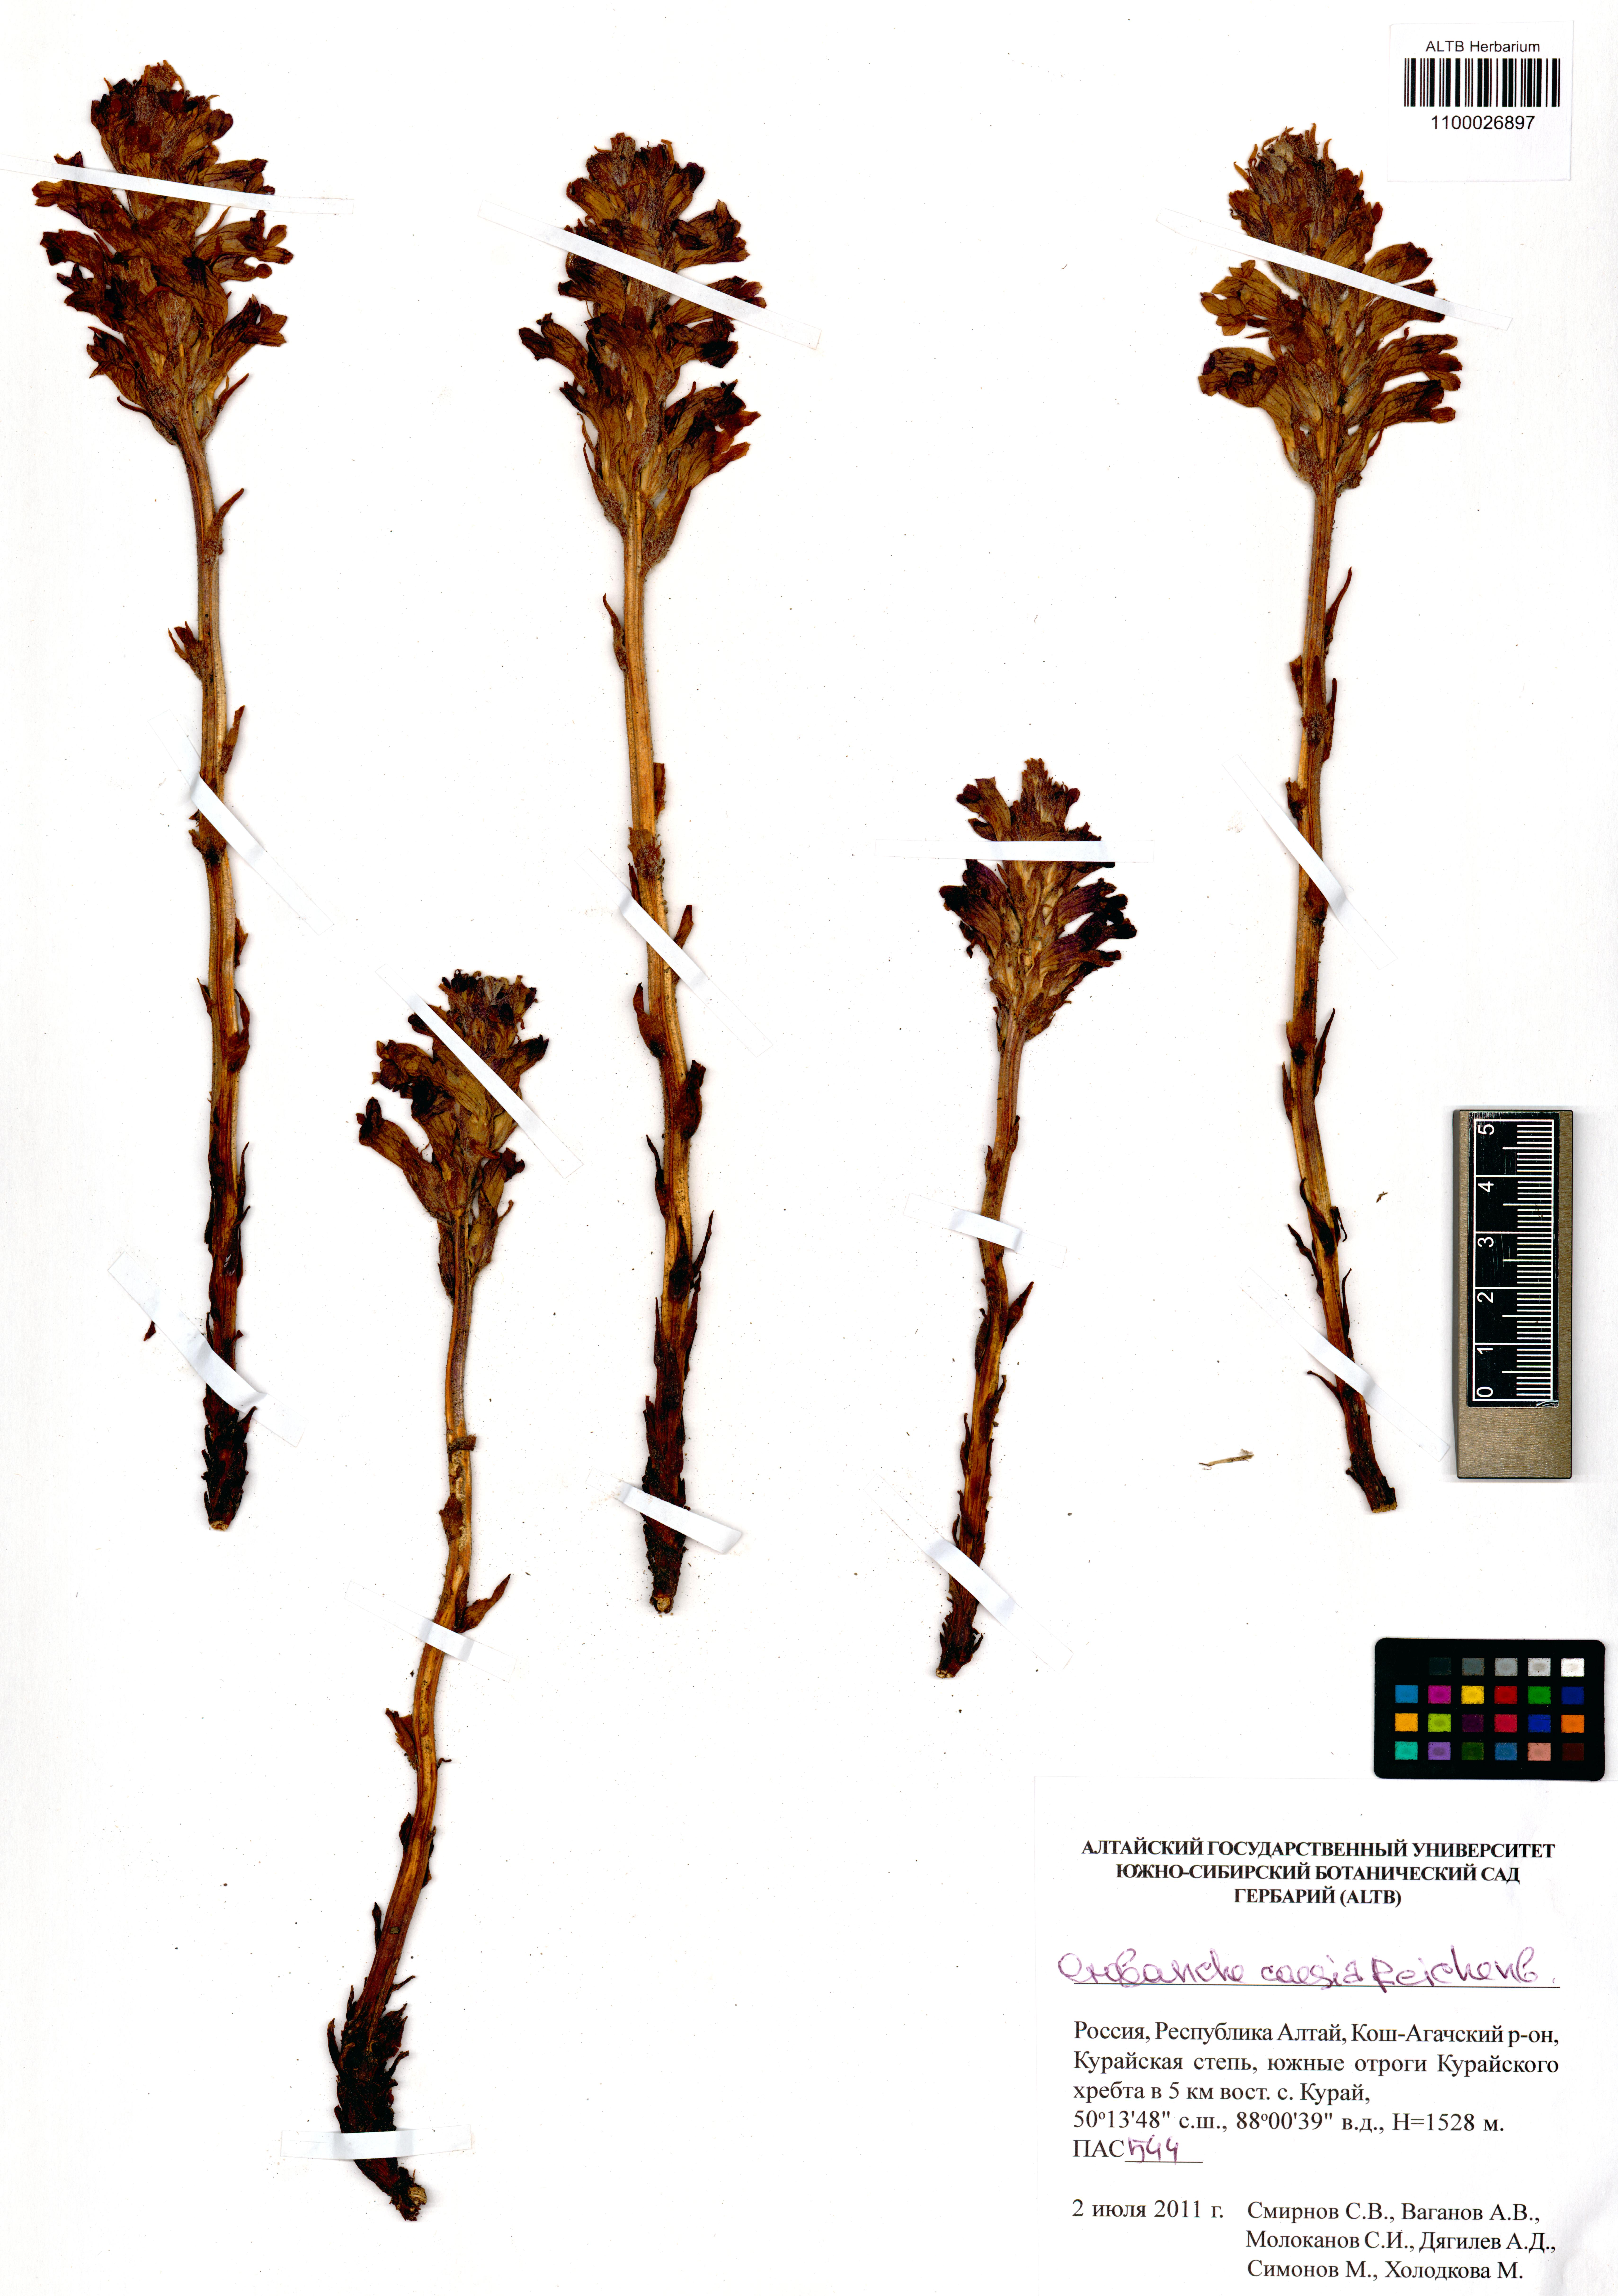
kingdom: Plantae
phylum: Tracheophyta
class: Magnoliopsida
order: Lamiales
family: Orobanchaceae
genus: Phelipanche
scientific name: Phelipanche caesia
